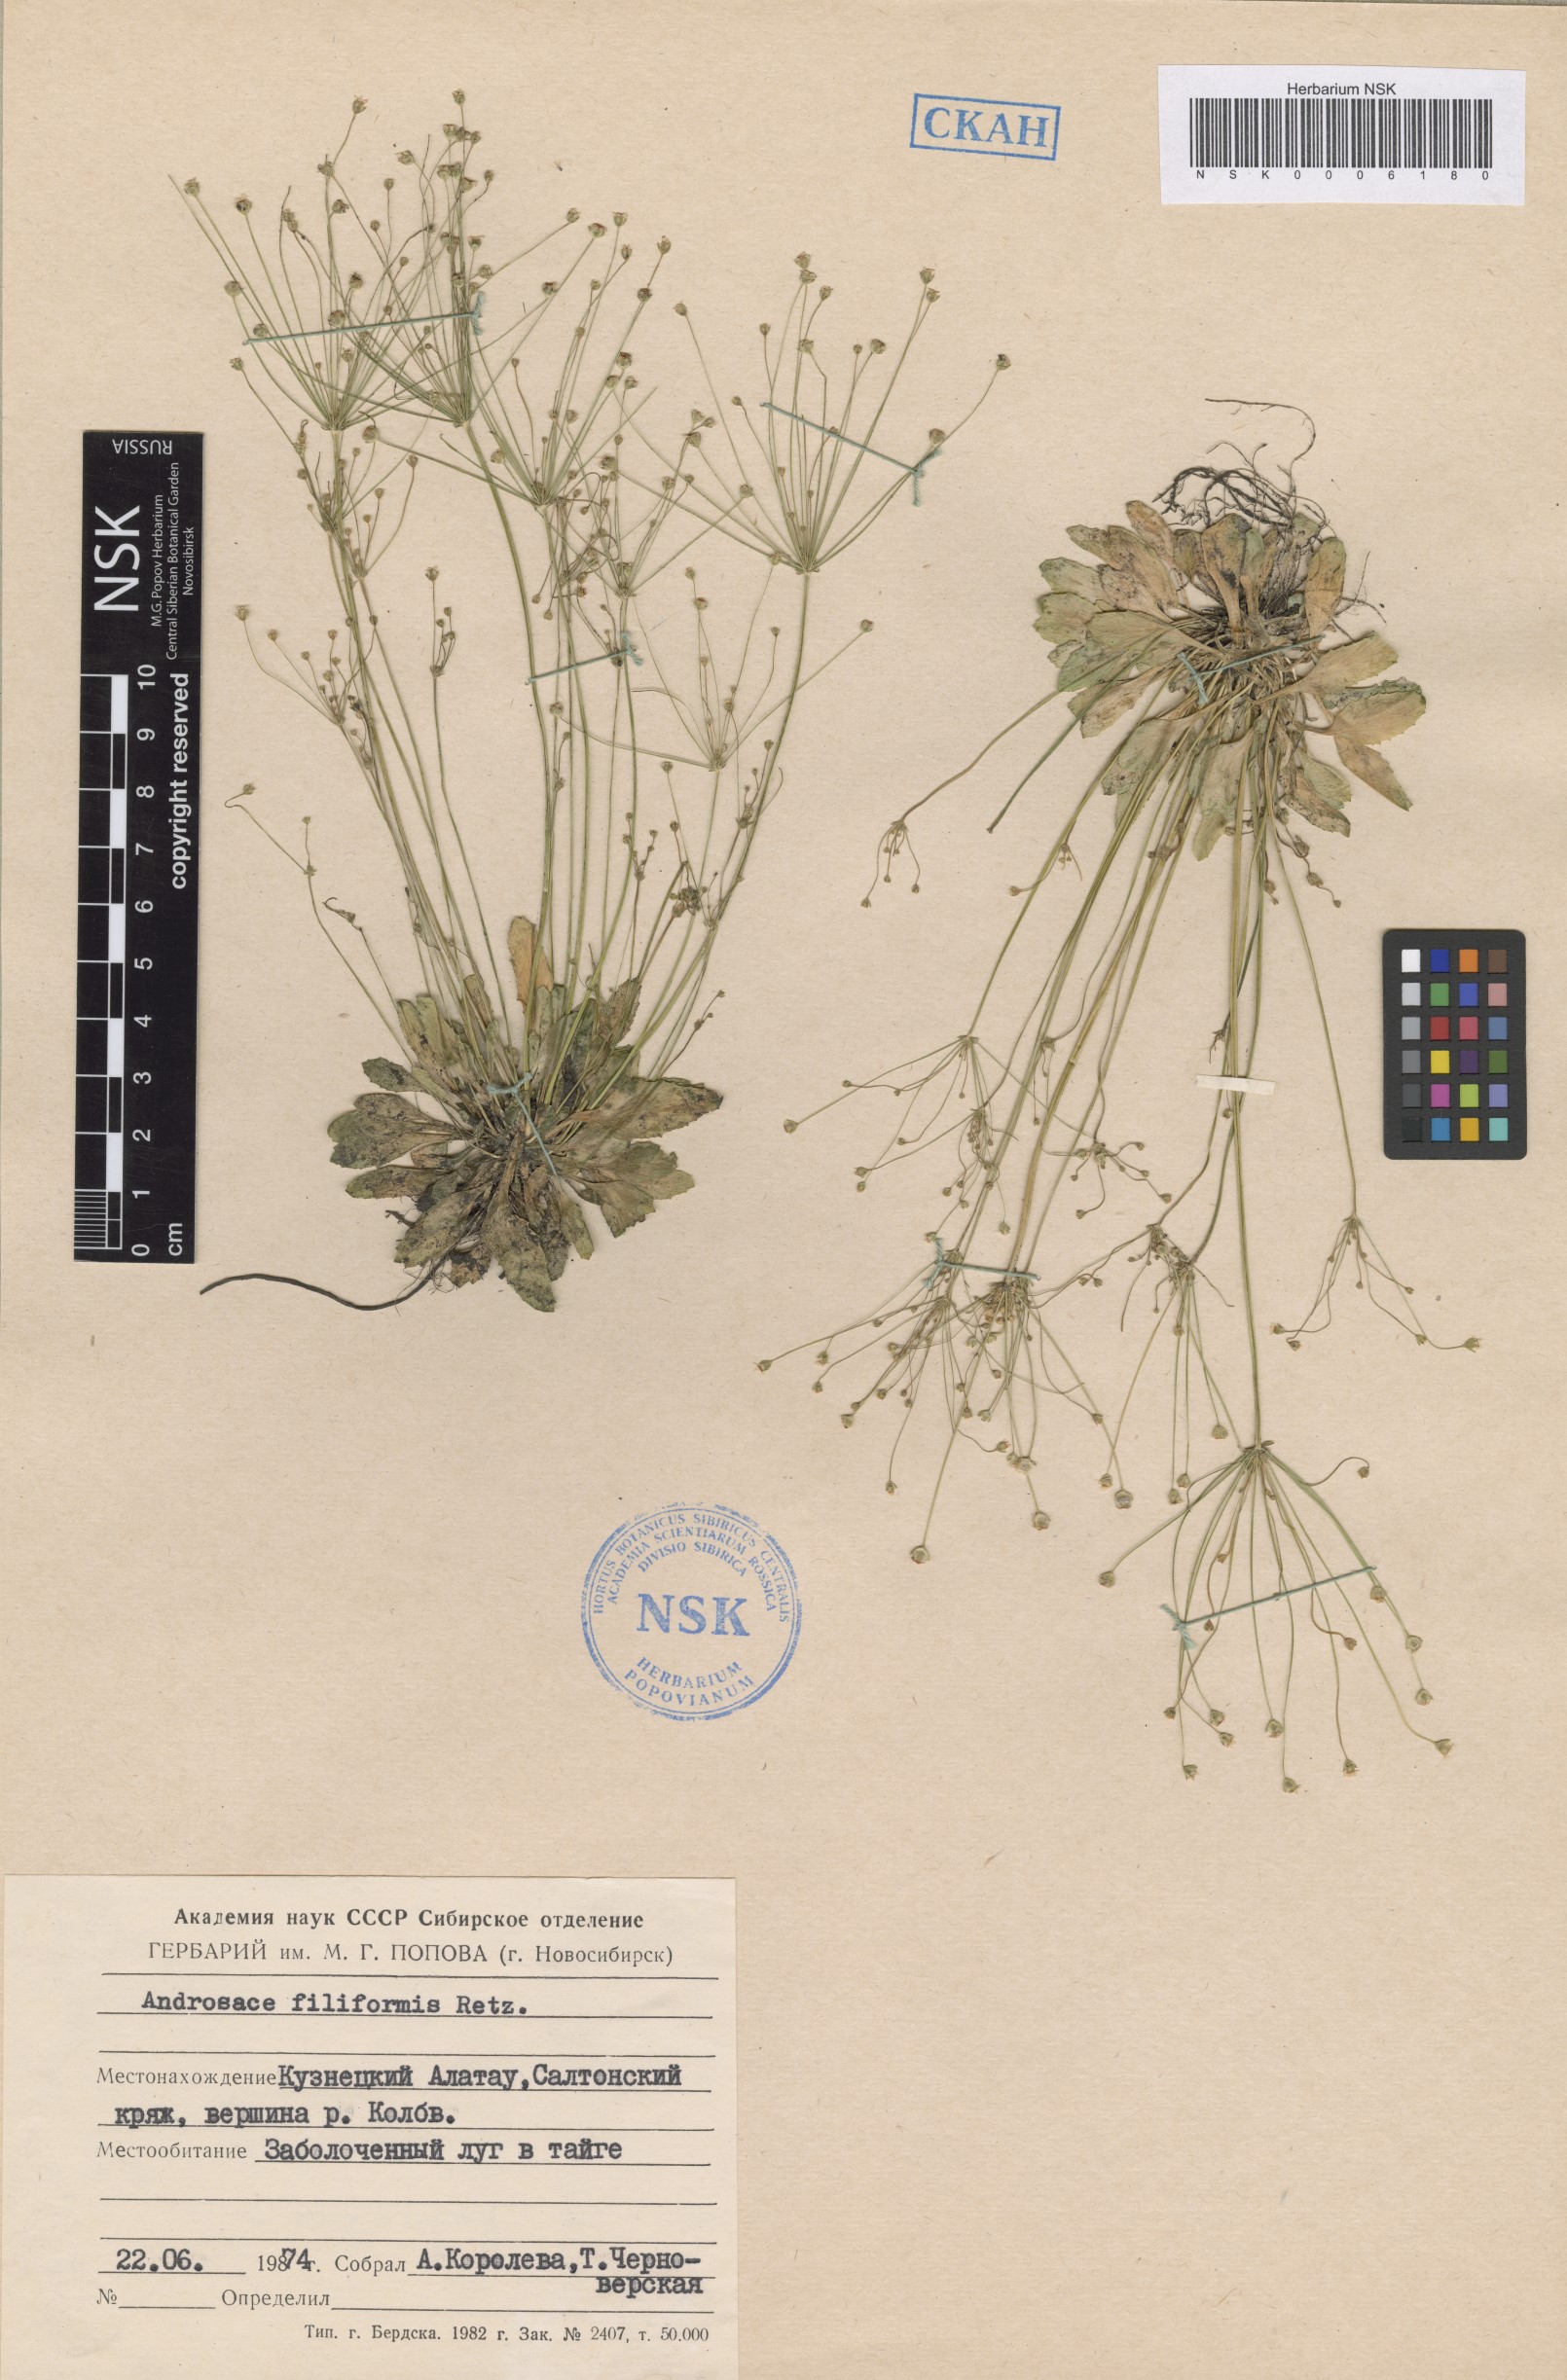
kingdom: Plantae
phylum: Tracheophyta
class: Magnoliopsida
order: Ericales
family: Primulaceae
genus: Androsace
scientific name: Androsace filiformis
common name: Filiform rock jasmine
